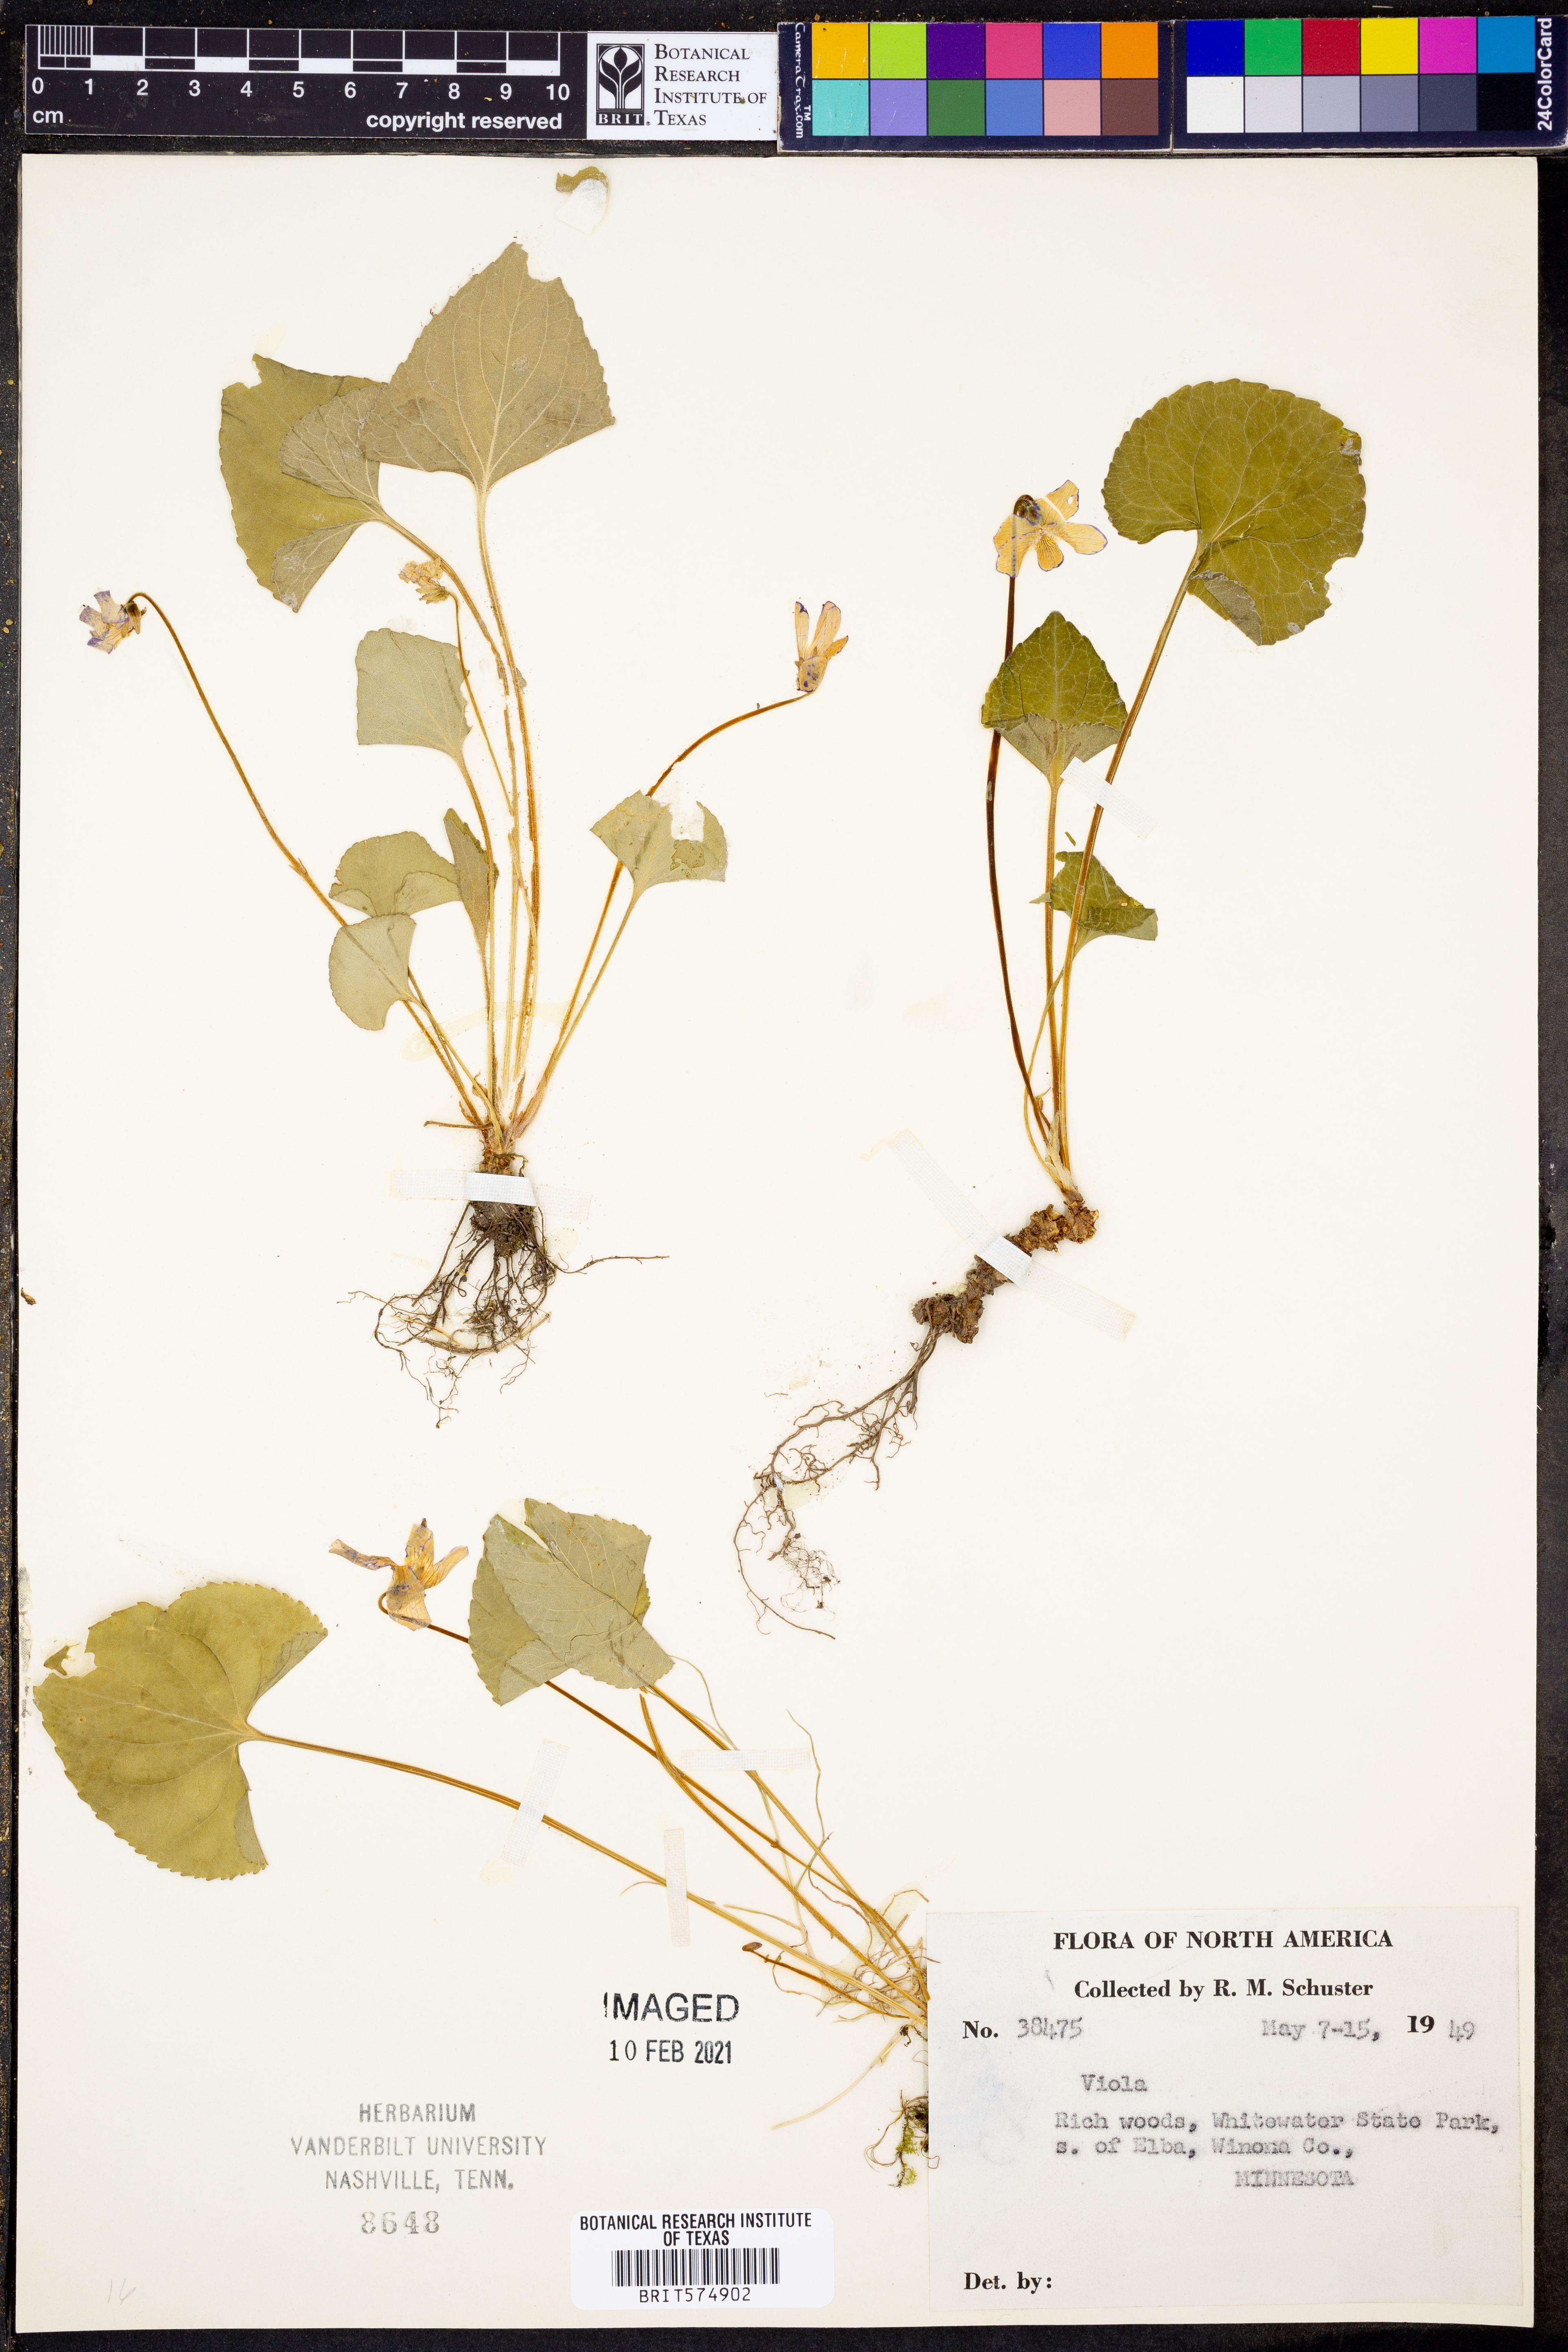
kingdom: Plantae
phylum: Tracheophyta
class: Magnoliopsida
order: Malpighiales
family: Violaceae
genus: Viola
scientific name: Viola
